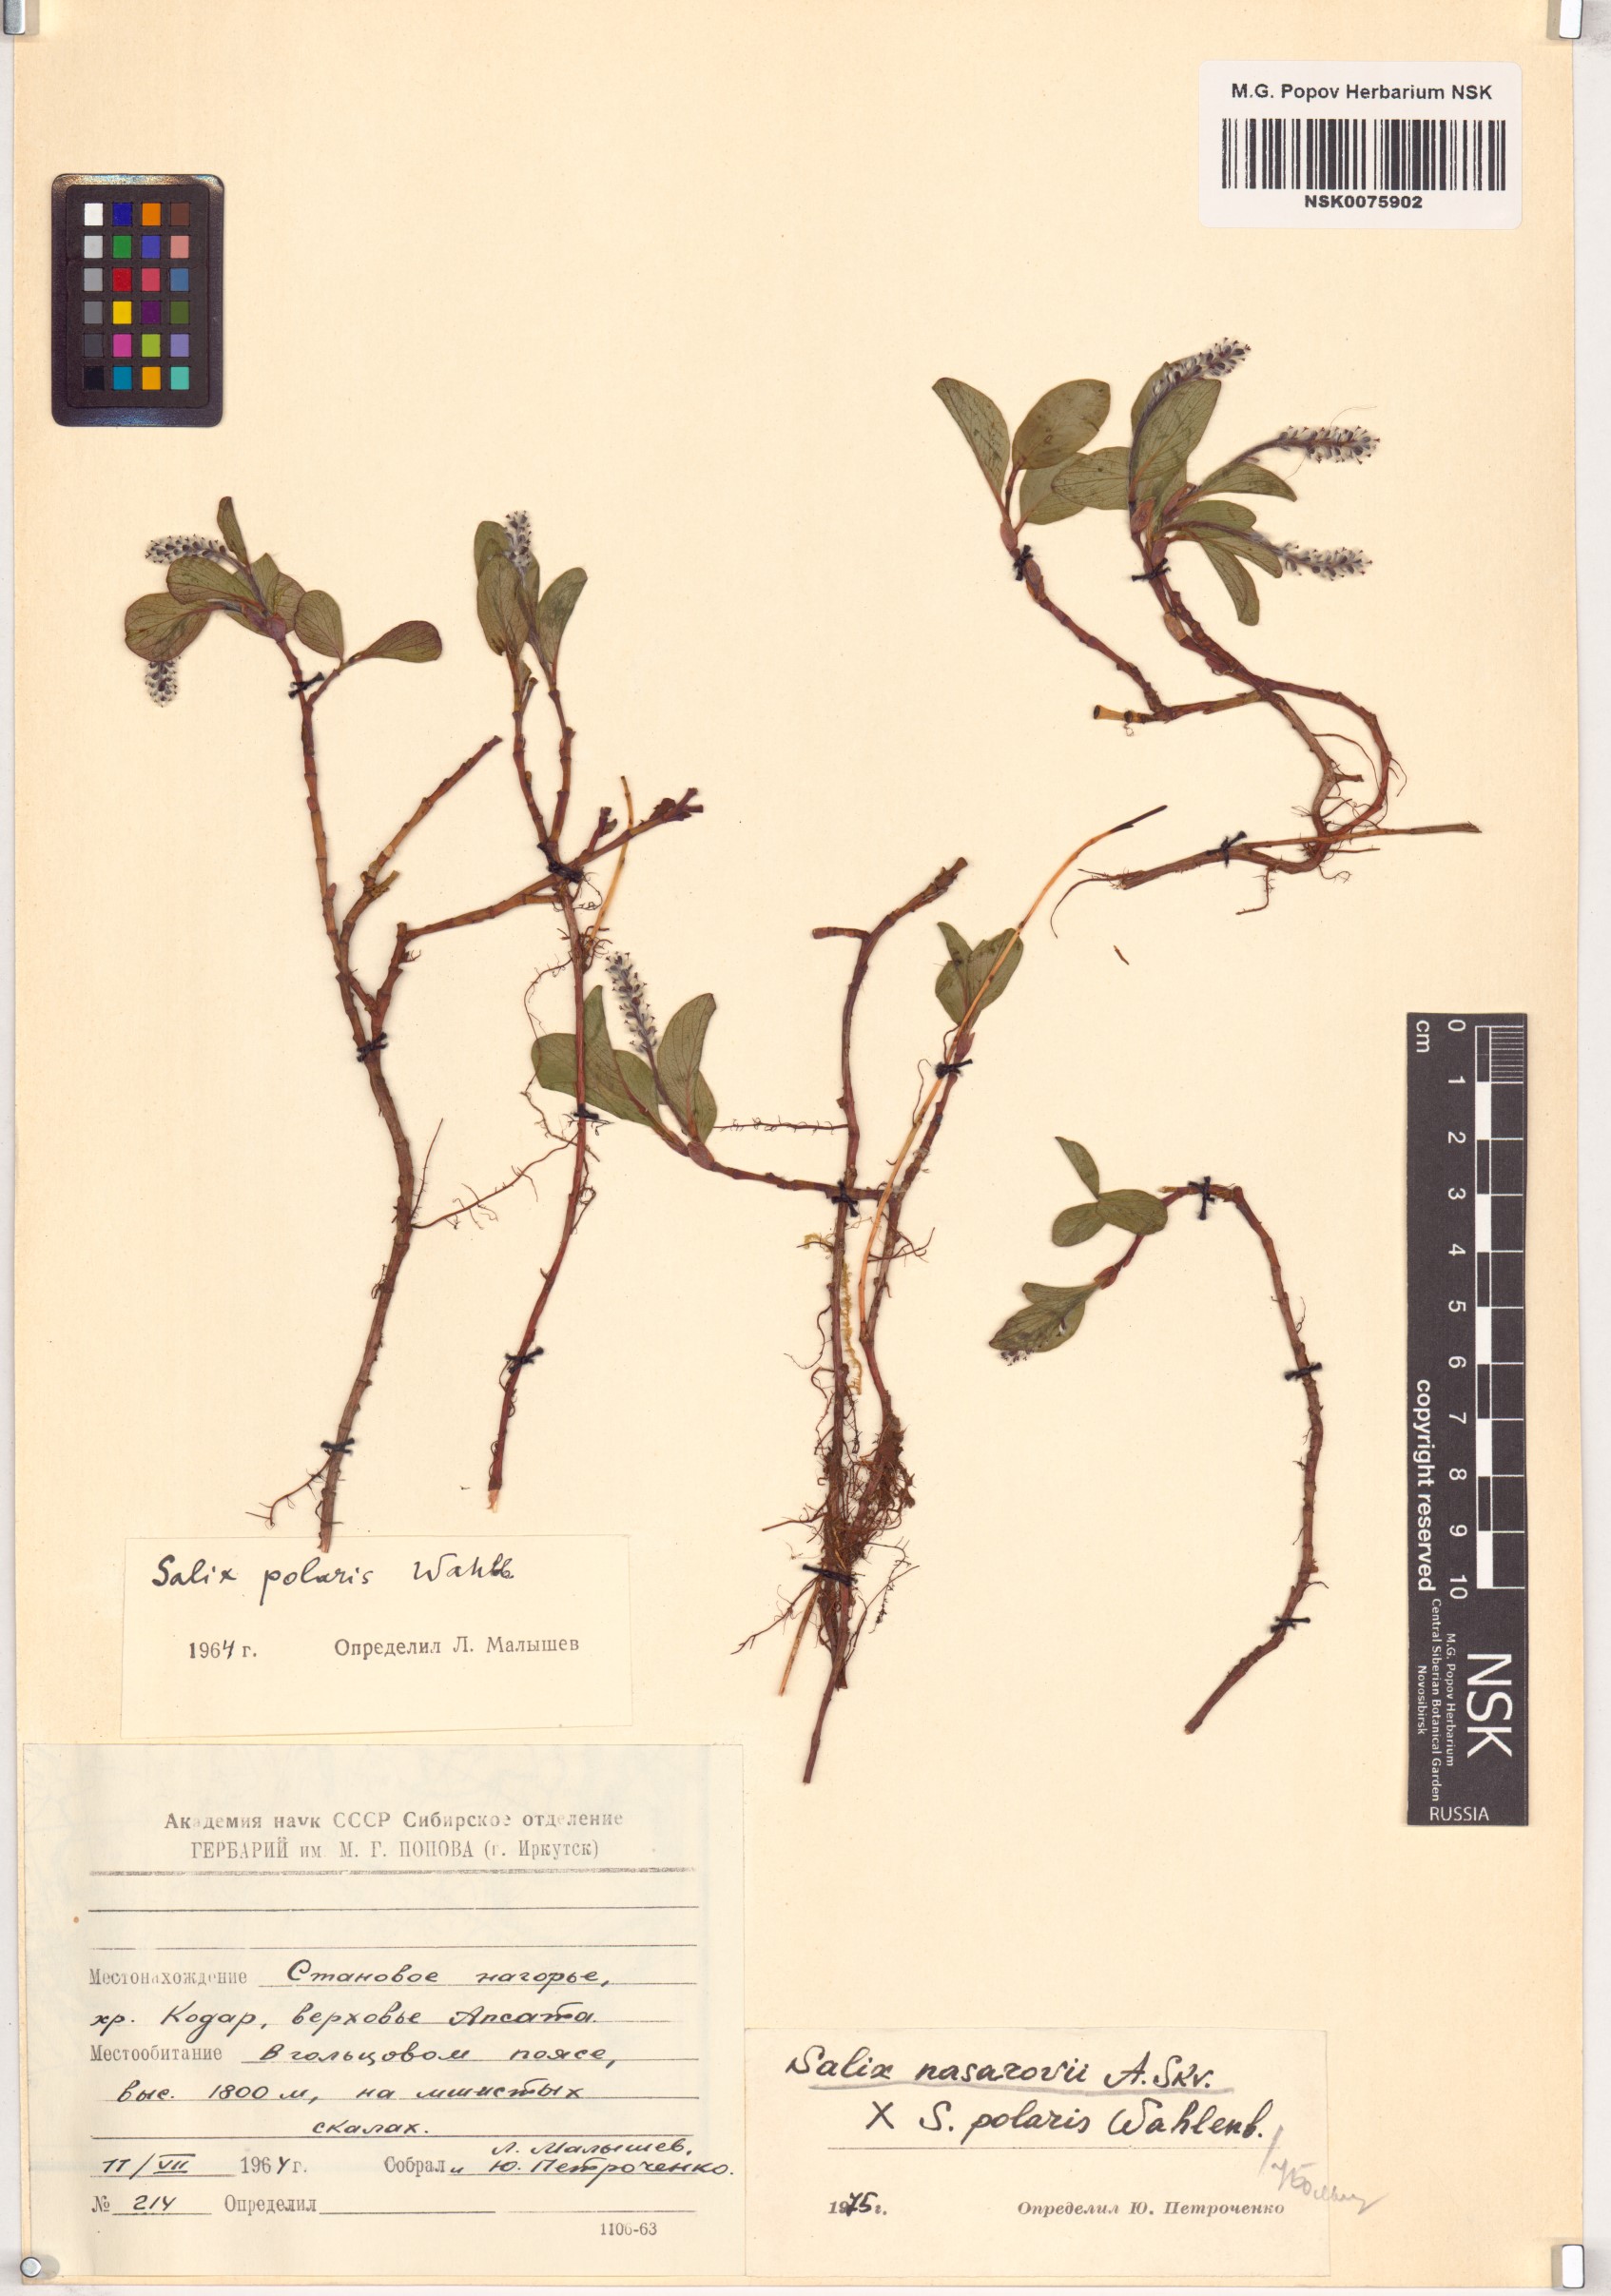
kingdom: Plantae
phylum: Tracheophyta
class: Magnoliopsida
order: Malpighiales
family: Salicaceae
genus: Salix
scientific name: Salix
